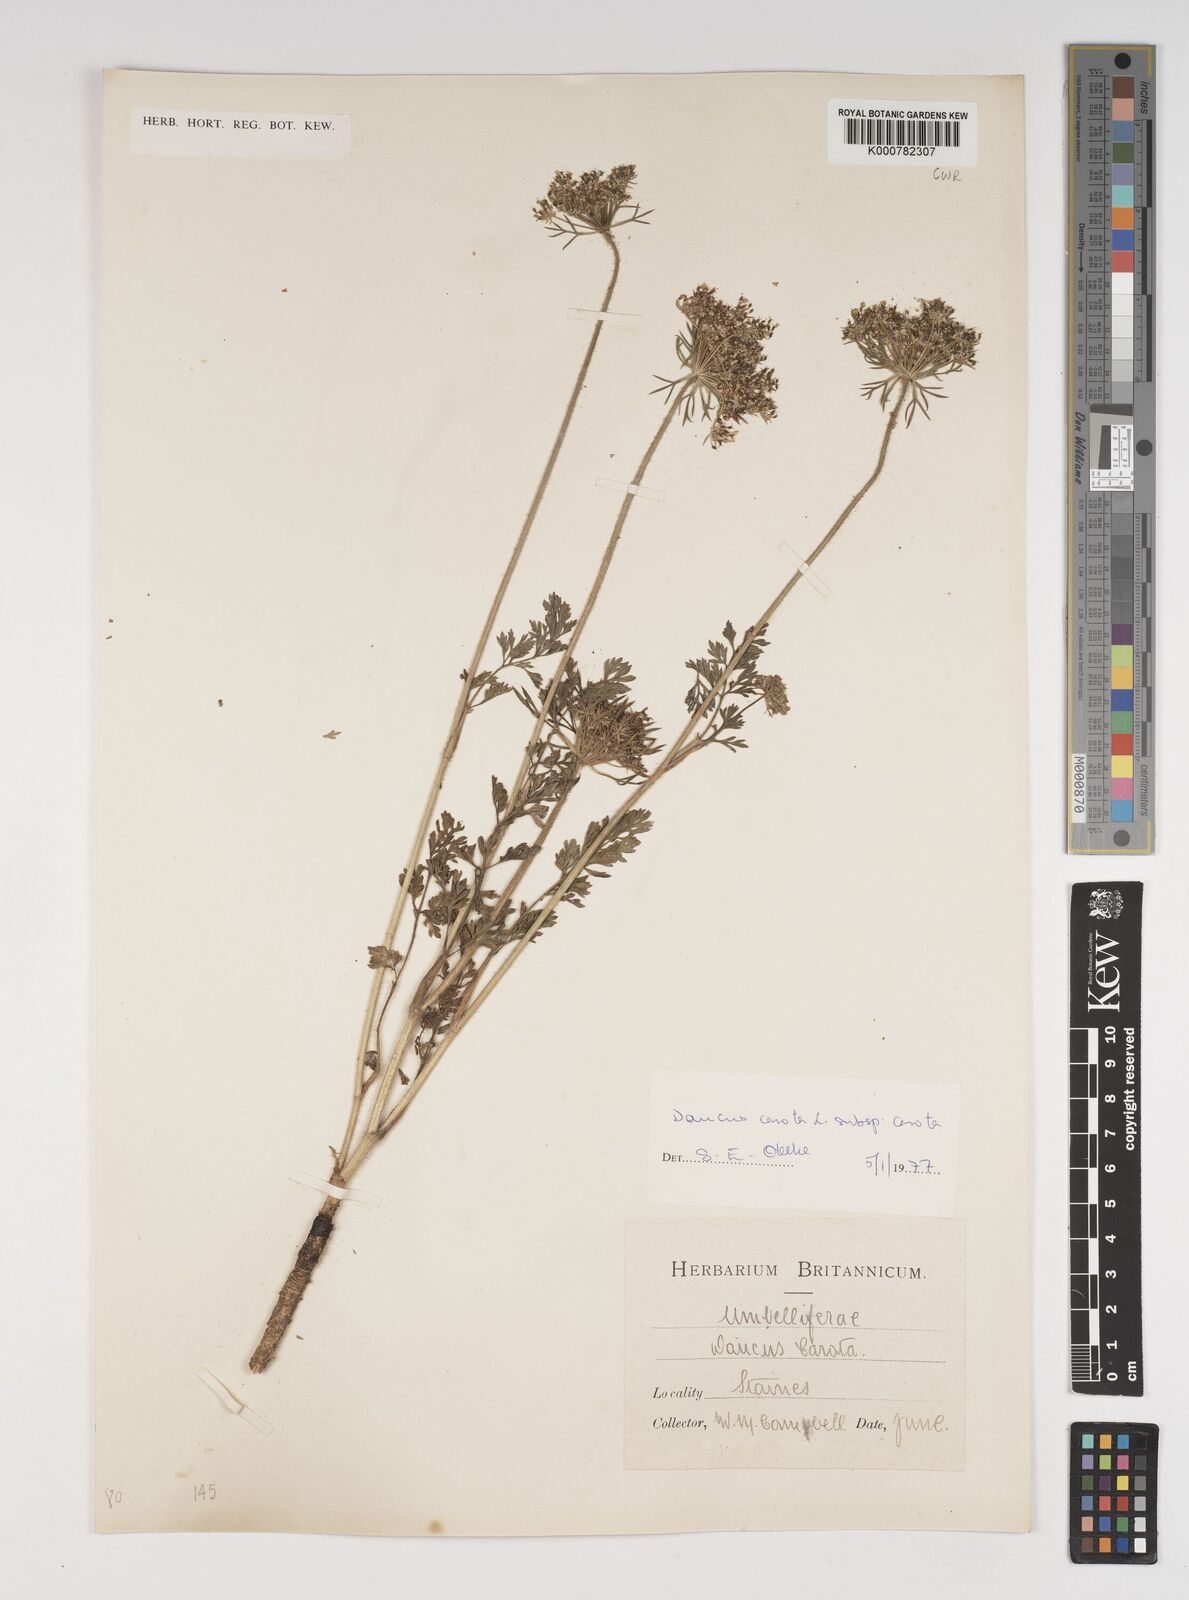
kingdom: Plantae
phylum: Tracheophyta
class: Magnoliopsida
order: Apiales
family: Apiaceae
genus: Daucus
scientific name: Daucus carota
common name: Wild carrot
